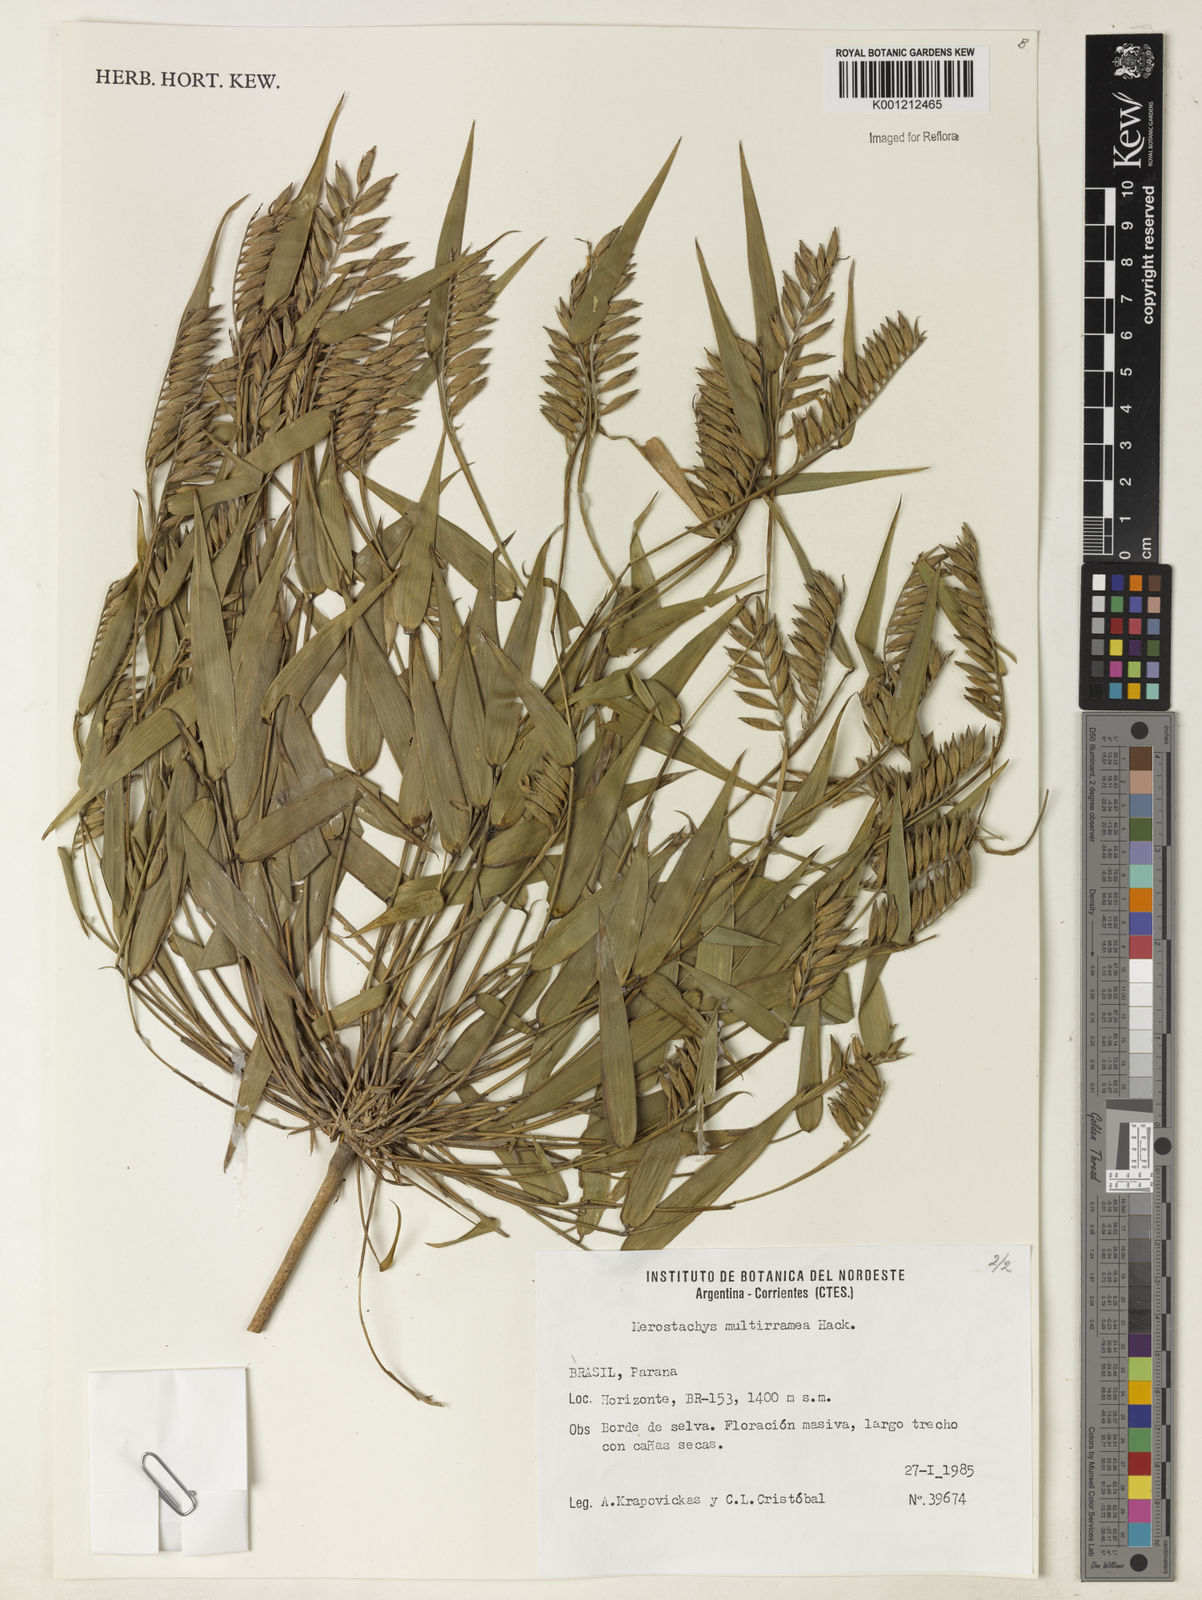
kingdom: Plantae
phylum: Tracheophyta
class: Liliopsida
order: Poales
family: Poaceae
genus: Merostachys
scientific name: Merostachys multiramea
